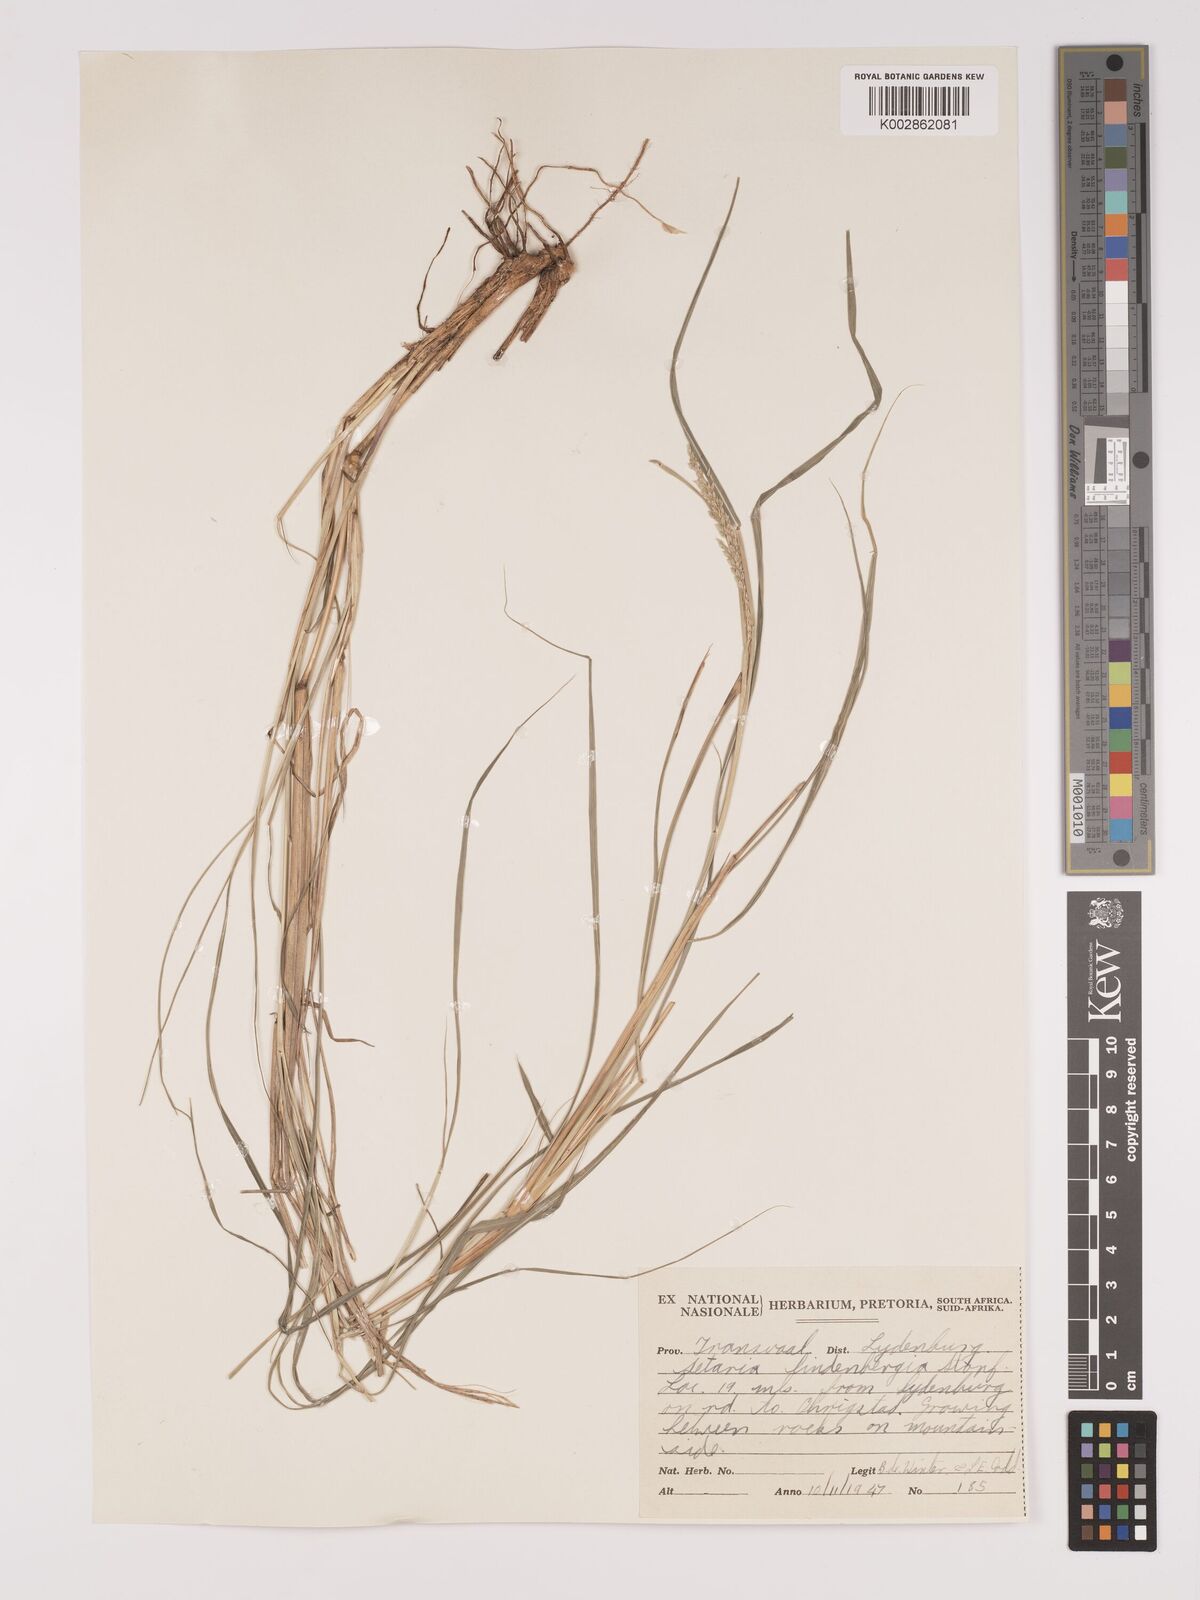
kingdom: Plantae
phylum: Tracheophyta
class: Liliopsida
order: Poales
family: Poaceae
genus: Setaria
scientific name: Setaria lindenbergiana
